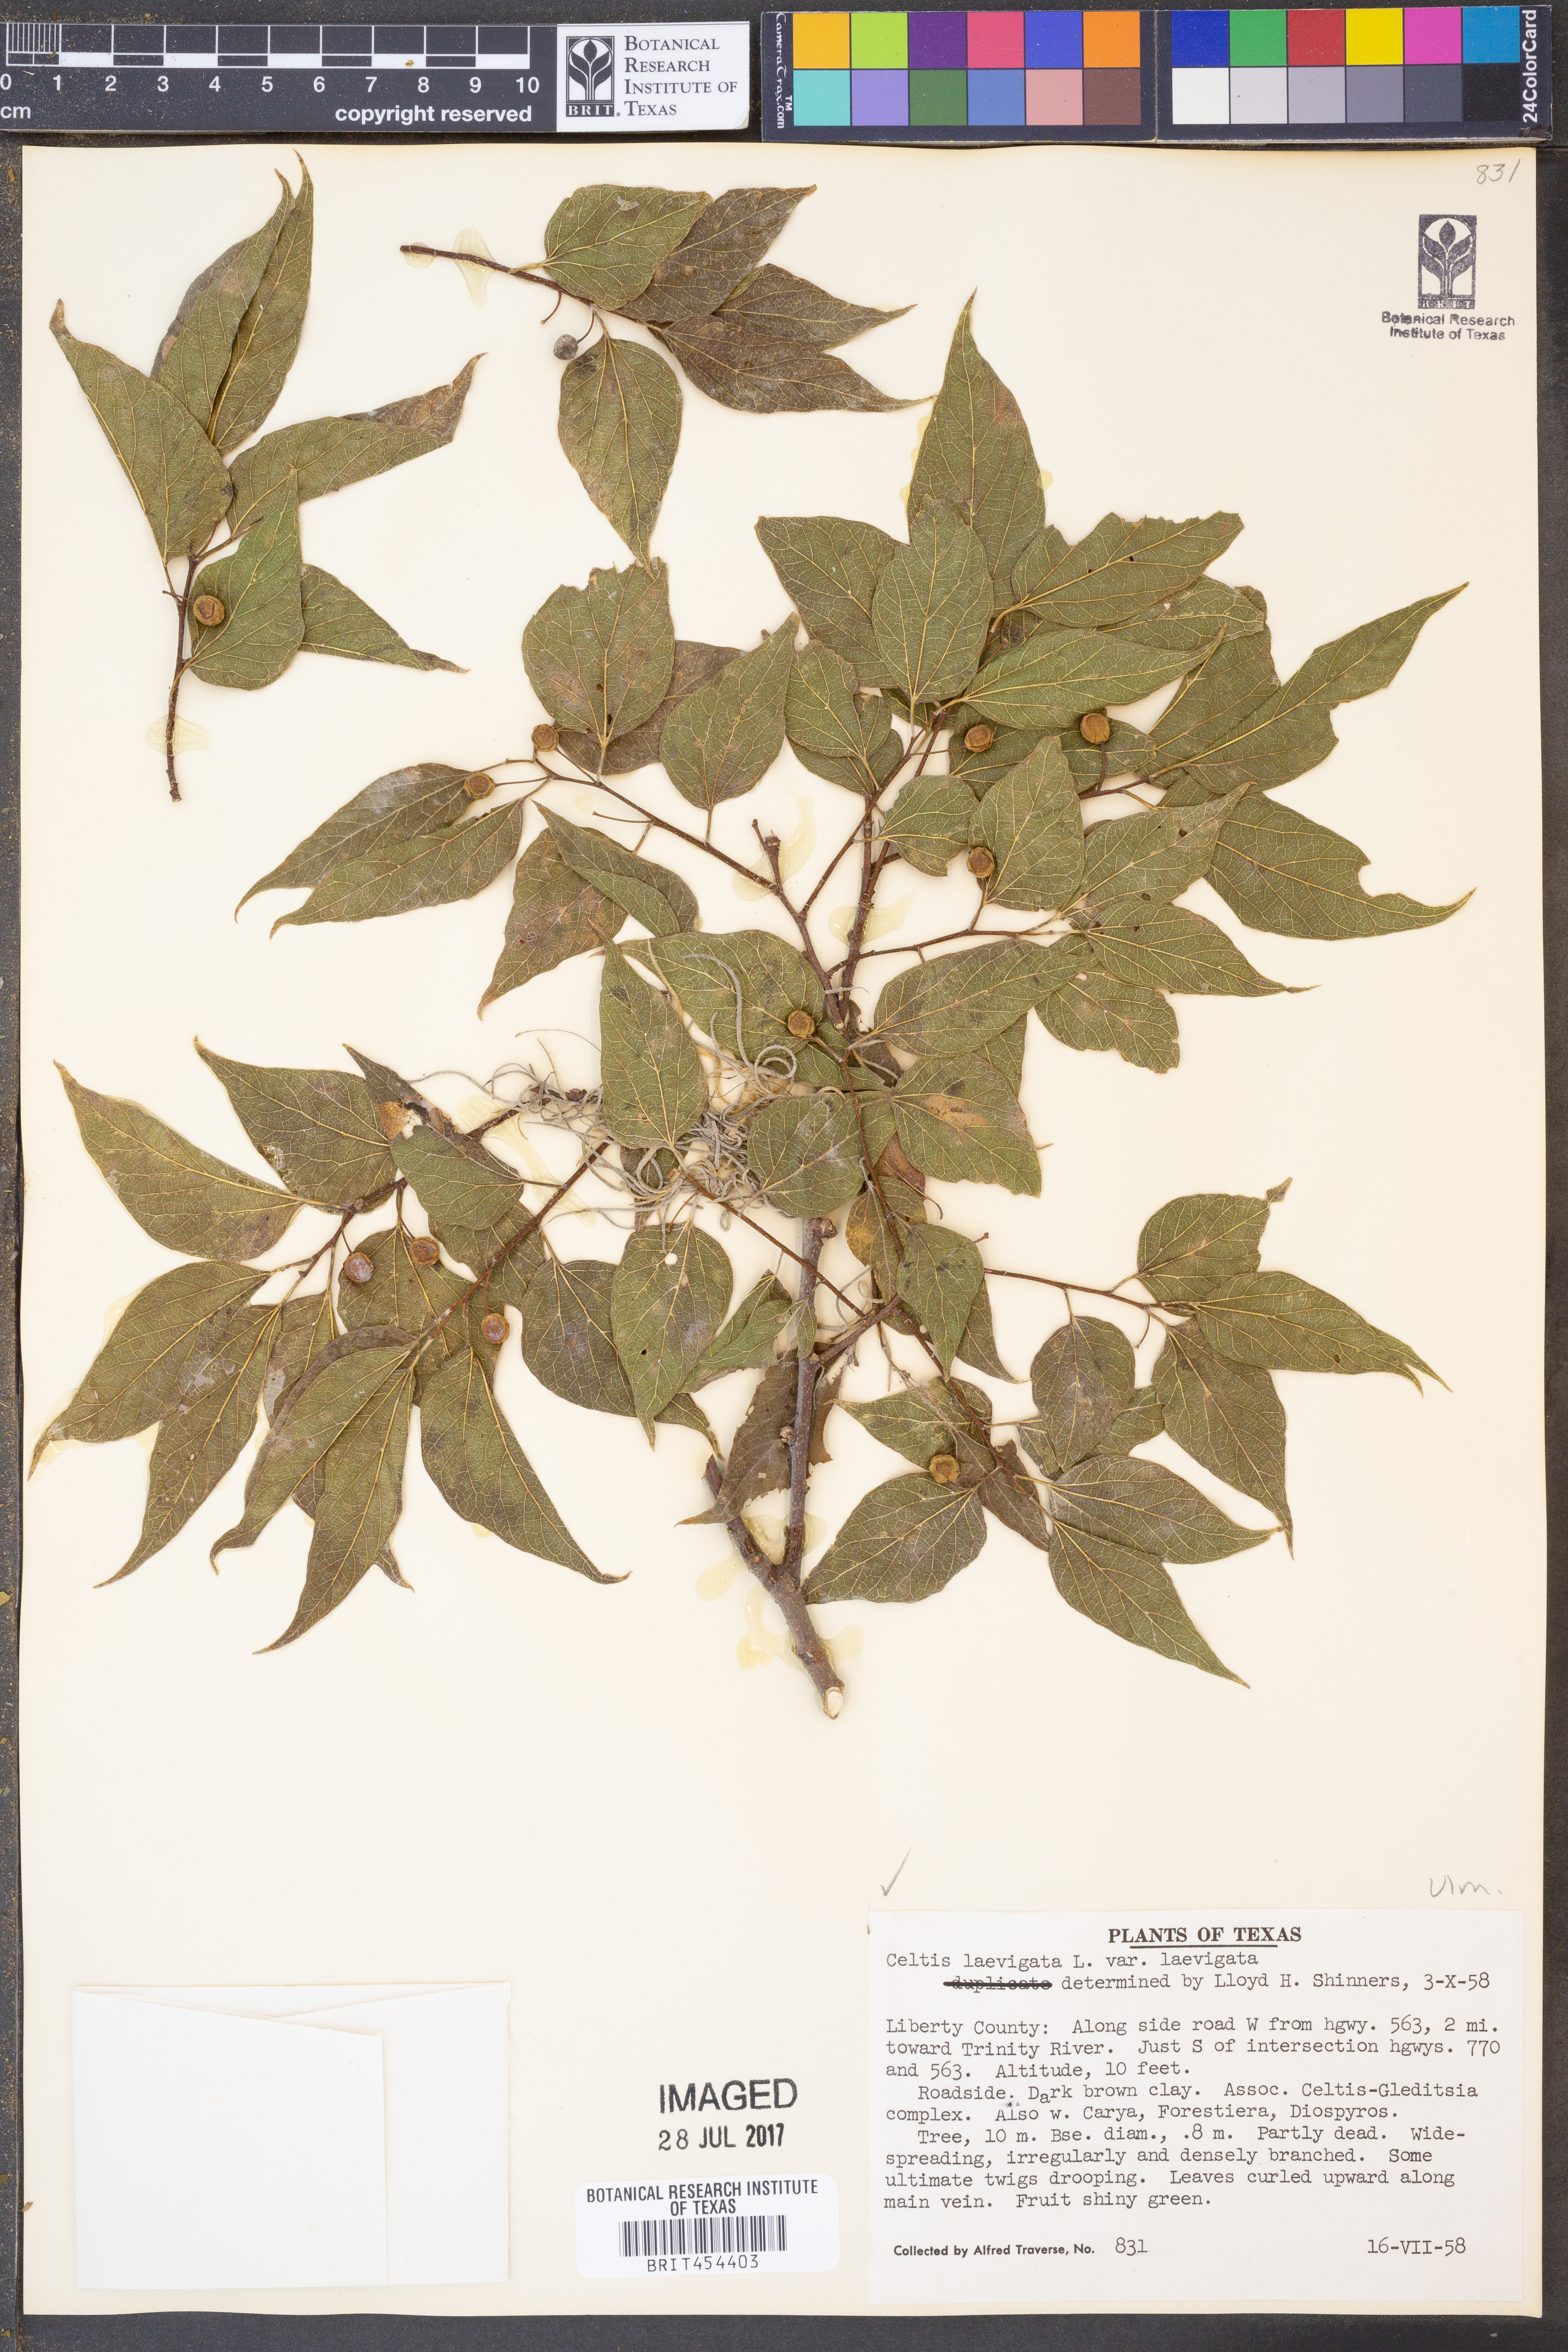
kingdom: Plantae
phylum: Tracheophyta
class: Magnoliopsida
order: Rosales
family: Cannabaceae
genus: Celtis
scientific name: Celtis laevigata
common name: Sugarberry
